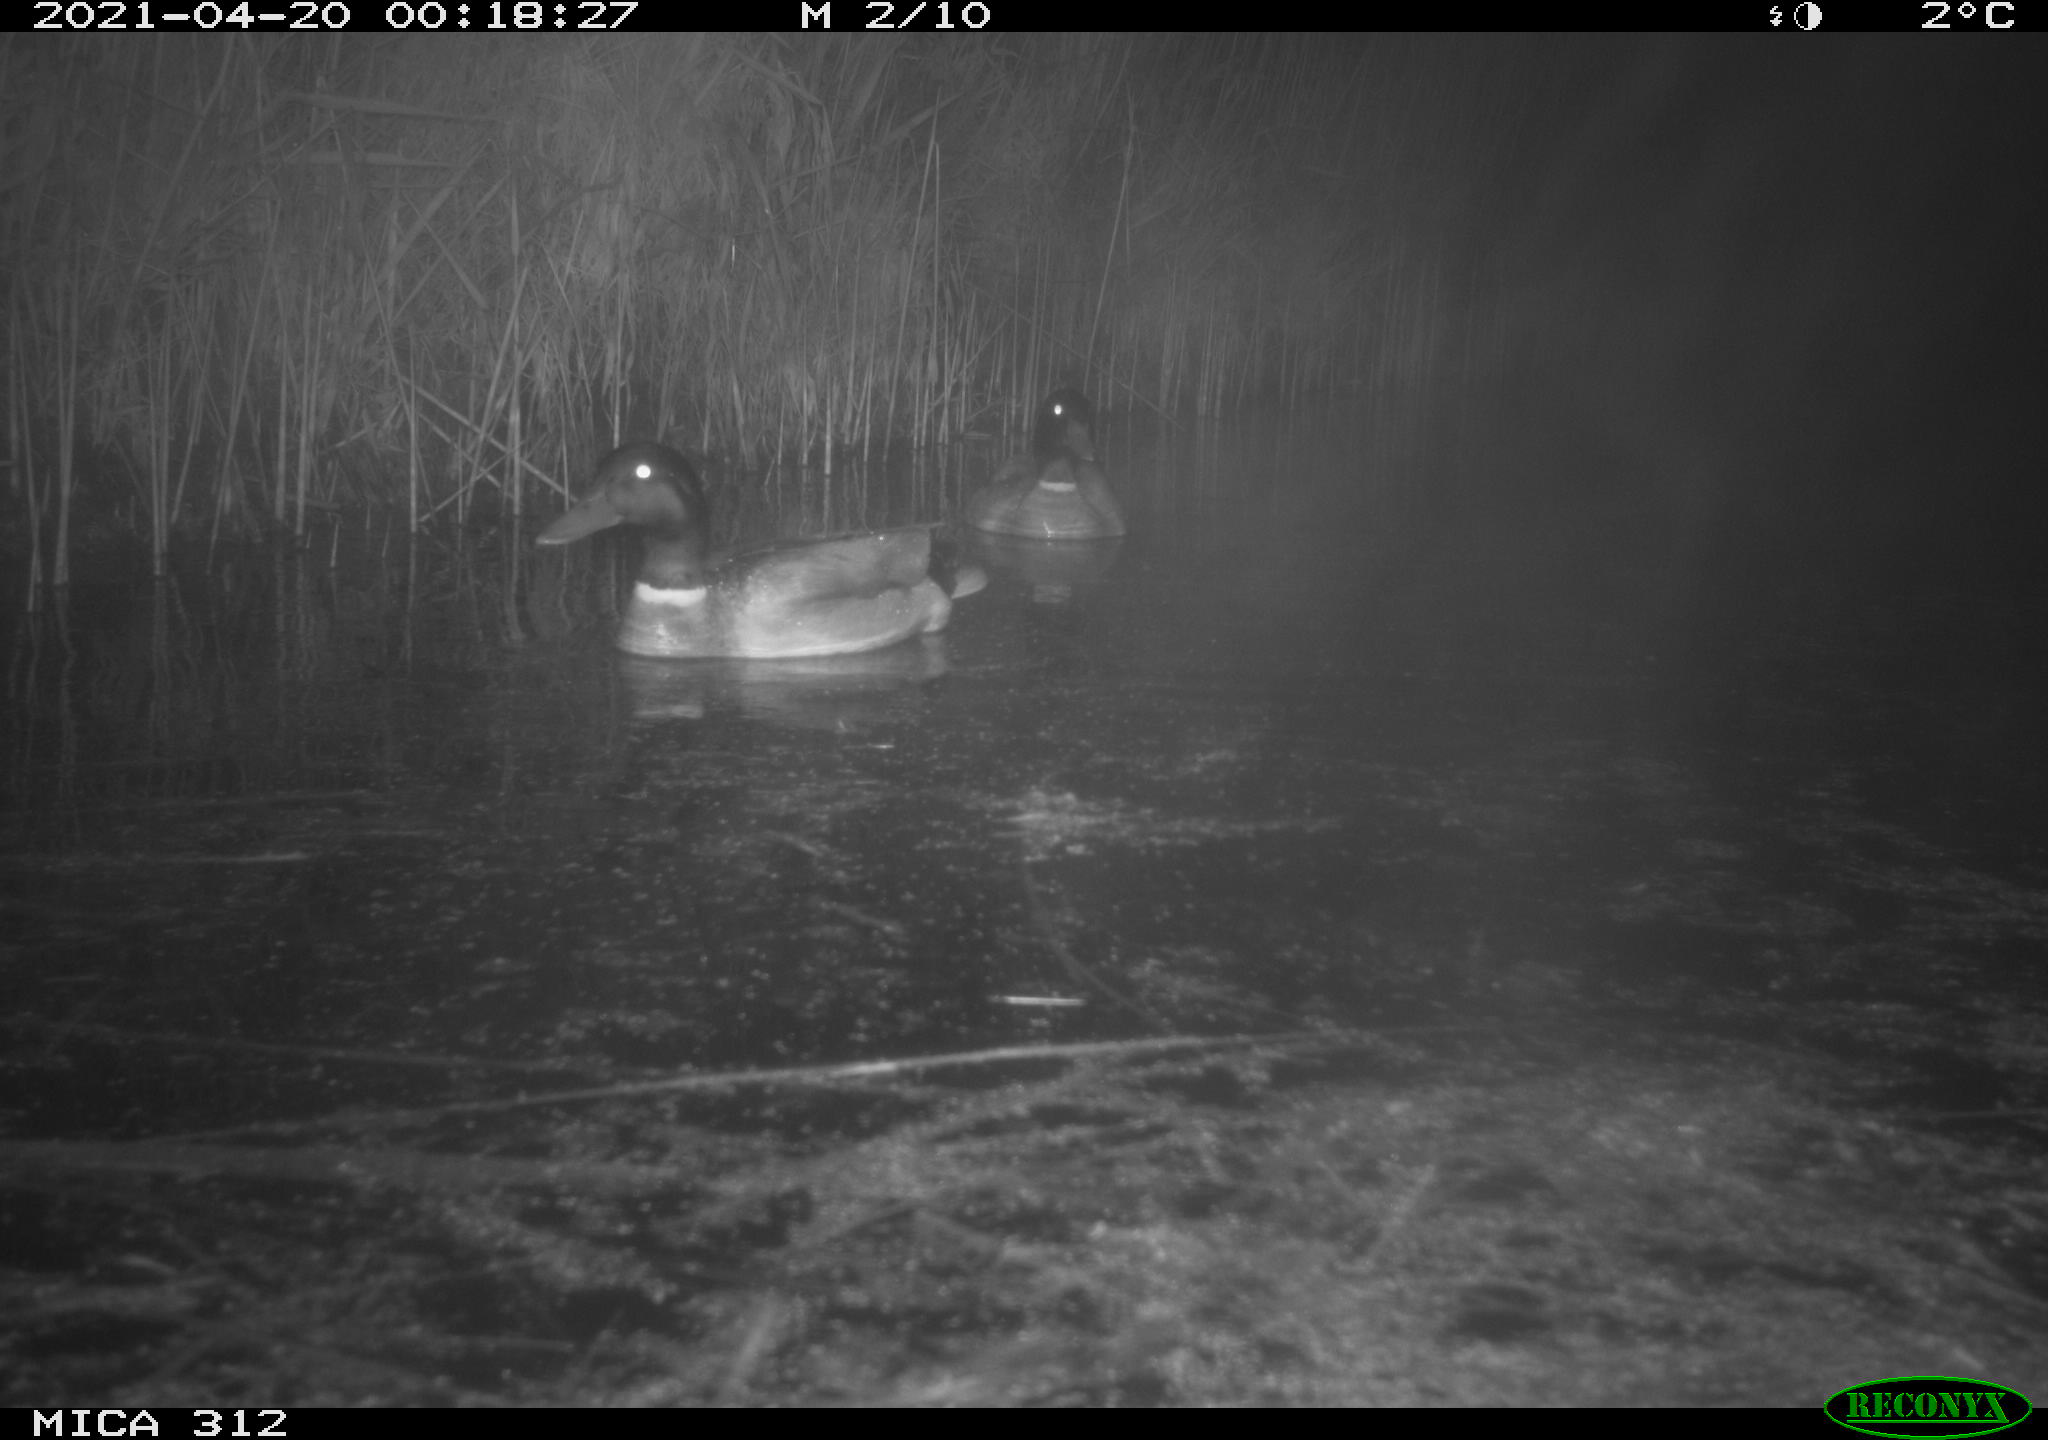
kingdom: Animalia
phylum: Chordata
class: Aves
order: Anseriformes
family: Anatidae
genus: Anas
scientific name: Anas platyrhynchos
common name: Mallard
